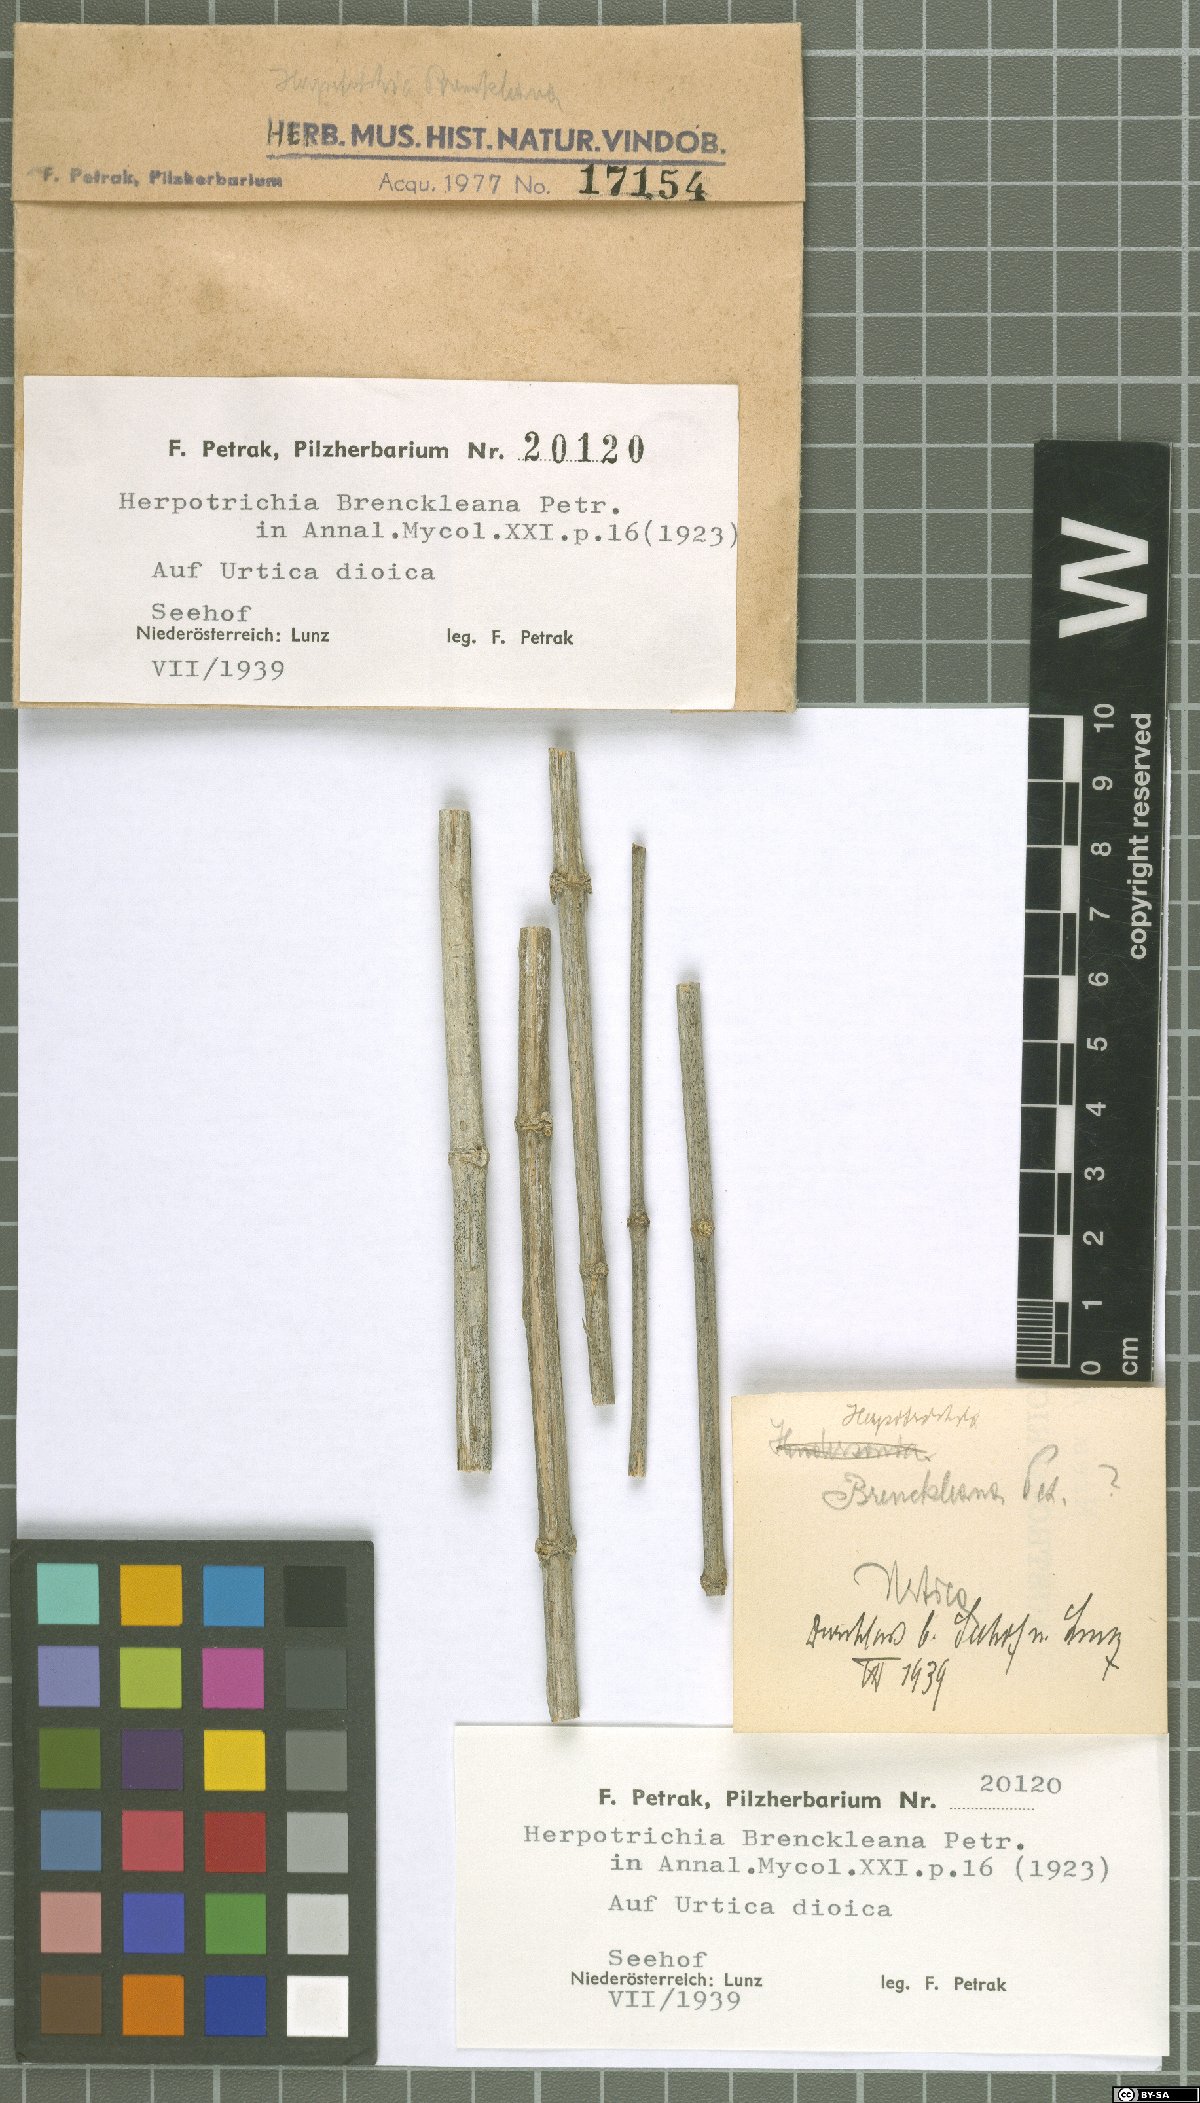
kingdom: Fungi
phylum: Ascomycota
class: Dothideomycetes
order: Pleosporales
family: Melanommataceae
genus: Herpotrichia
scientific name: Herpotrichia
